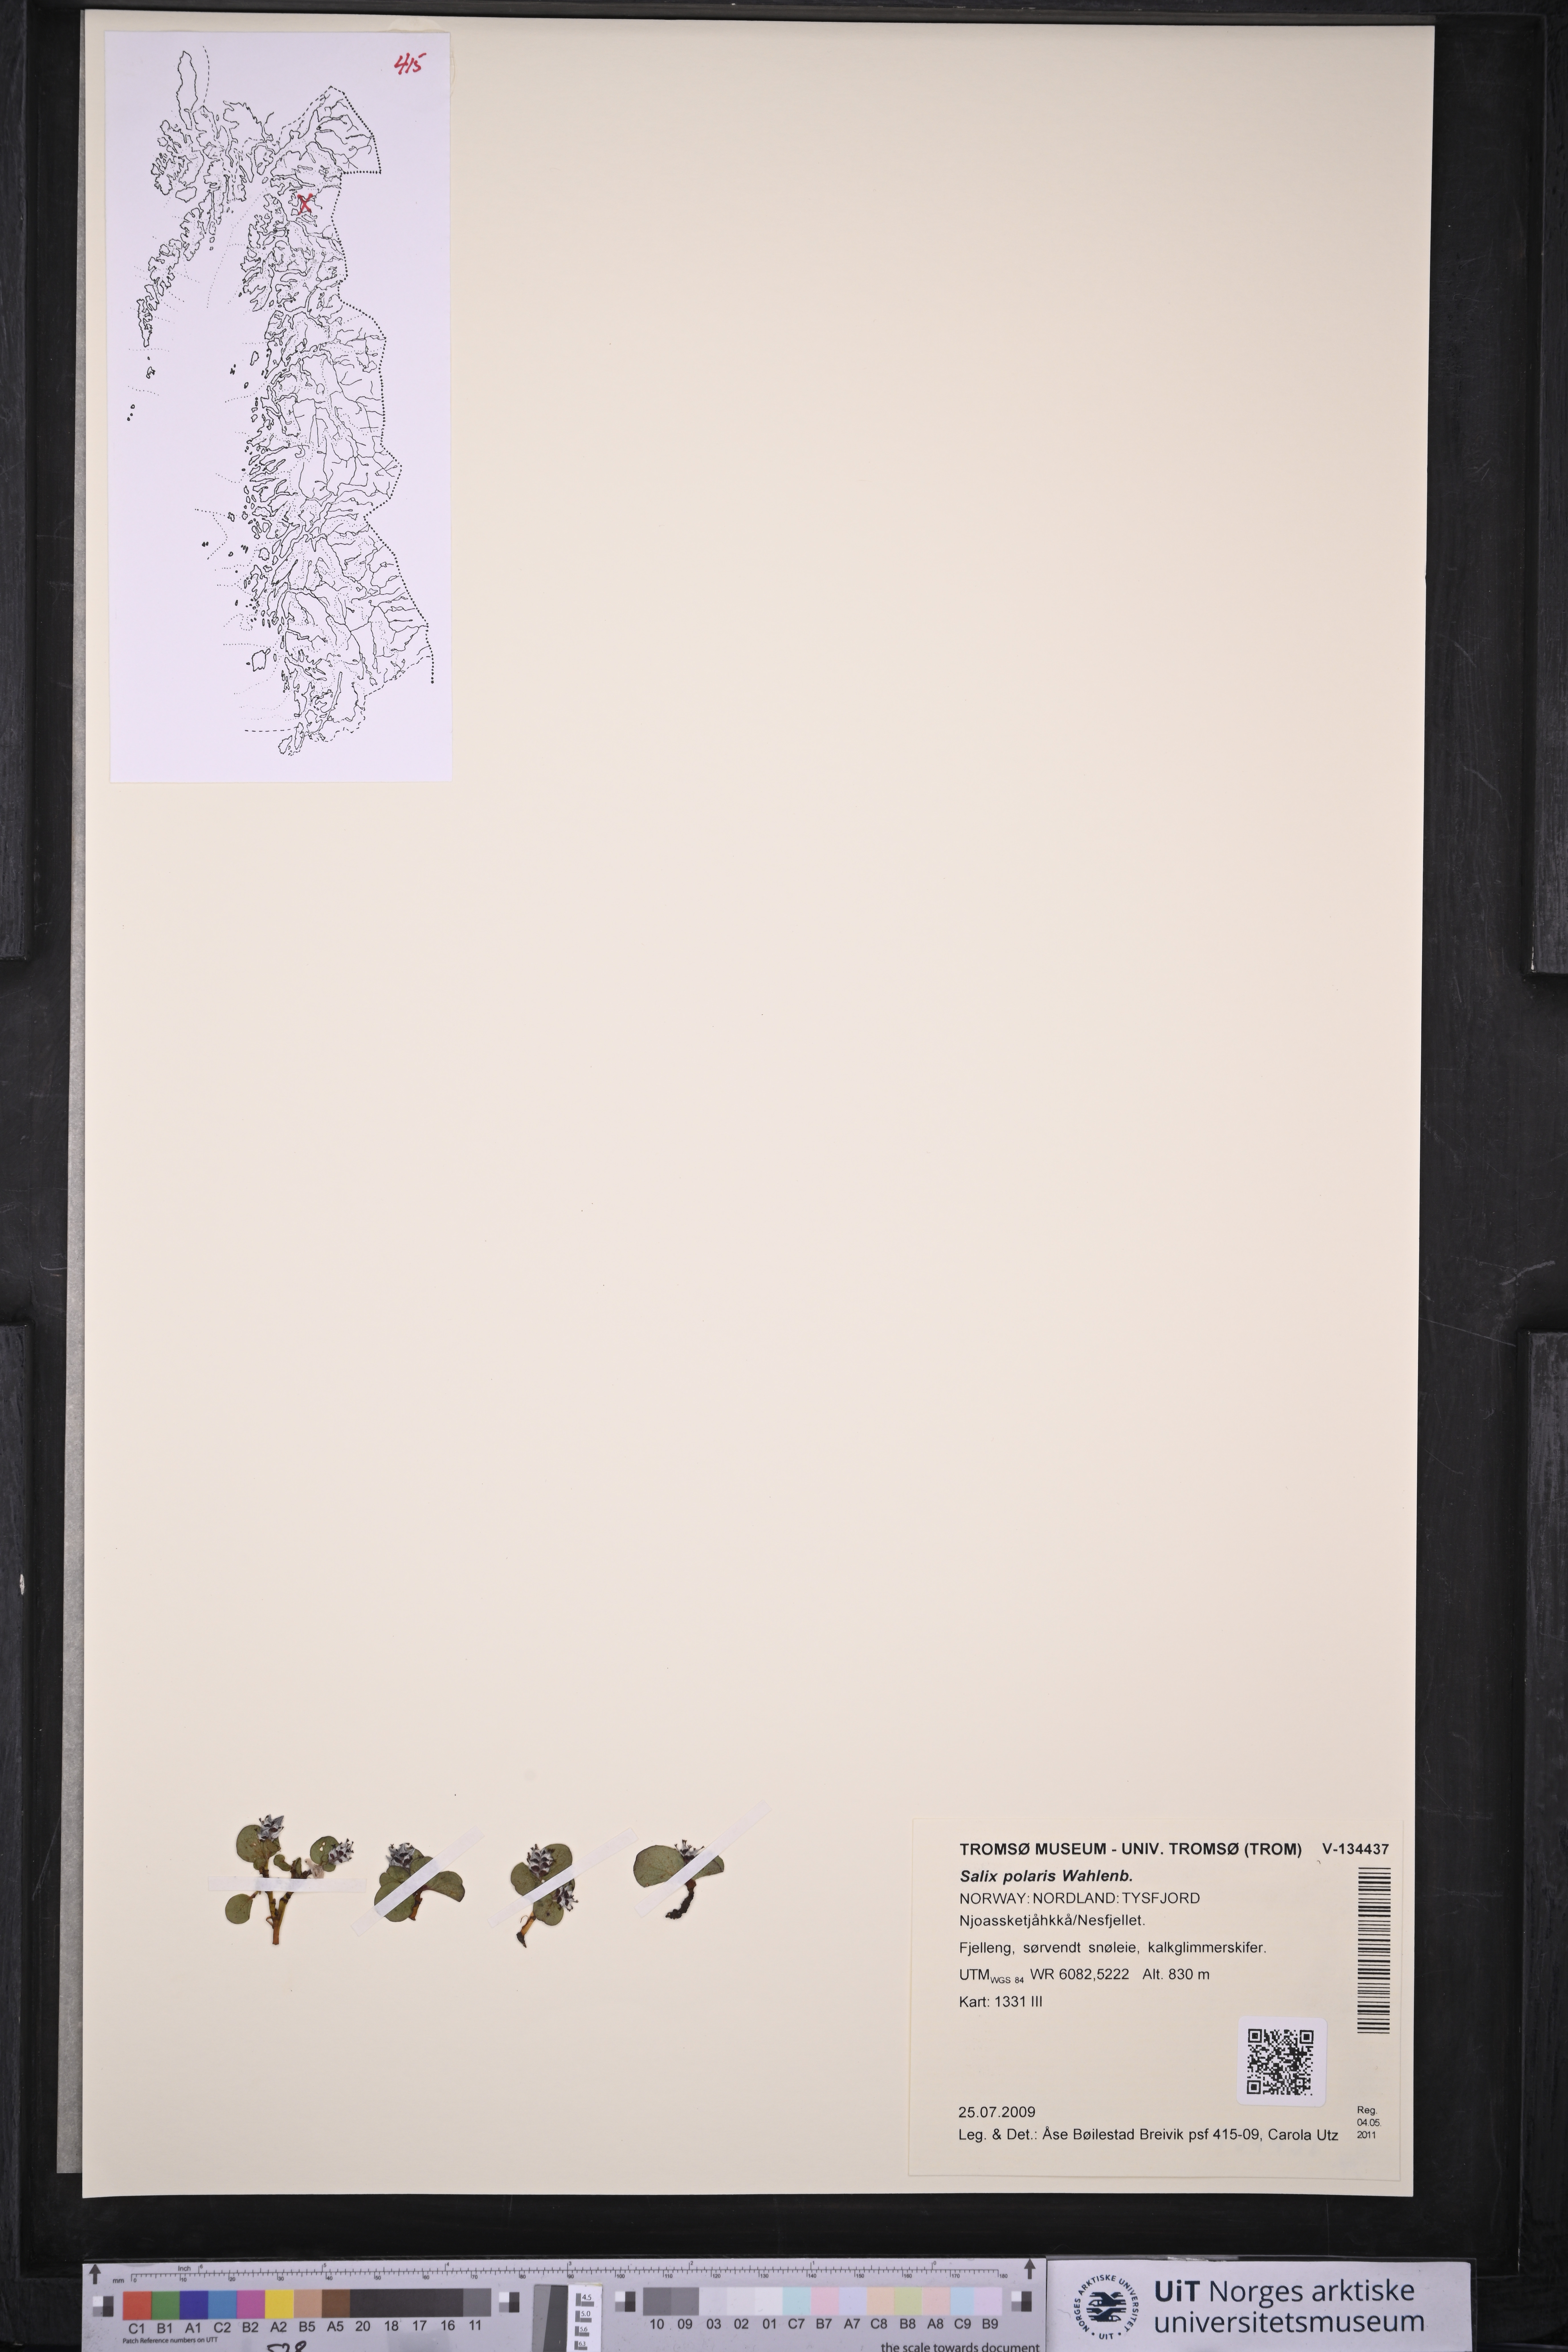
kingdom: Plantae
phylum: Tracheophyta
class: Magnoliopsida
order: Malpighiales
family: Salicaceae
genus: Salix
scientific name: Salix polaris
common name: Polar willow
